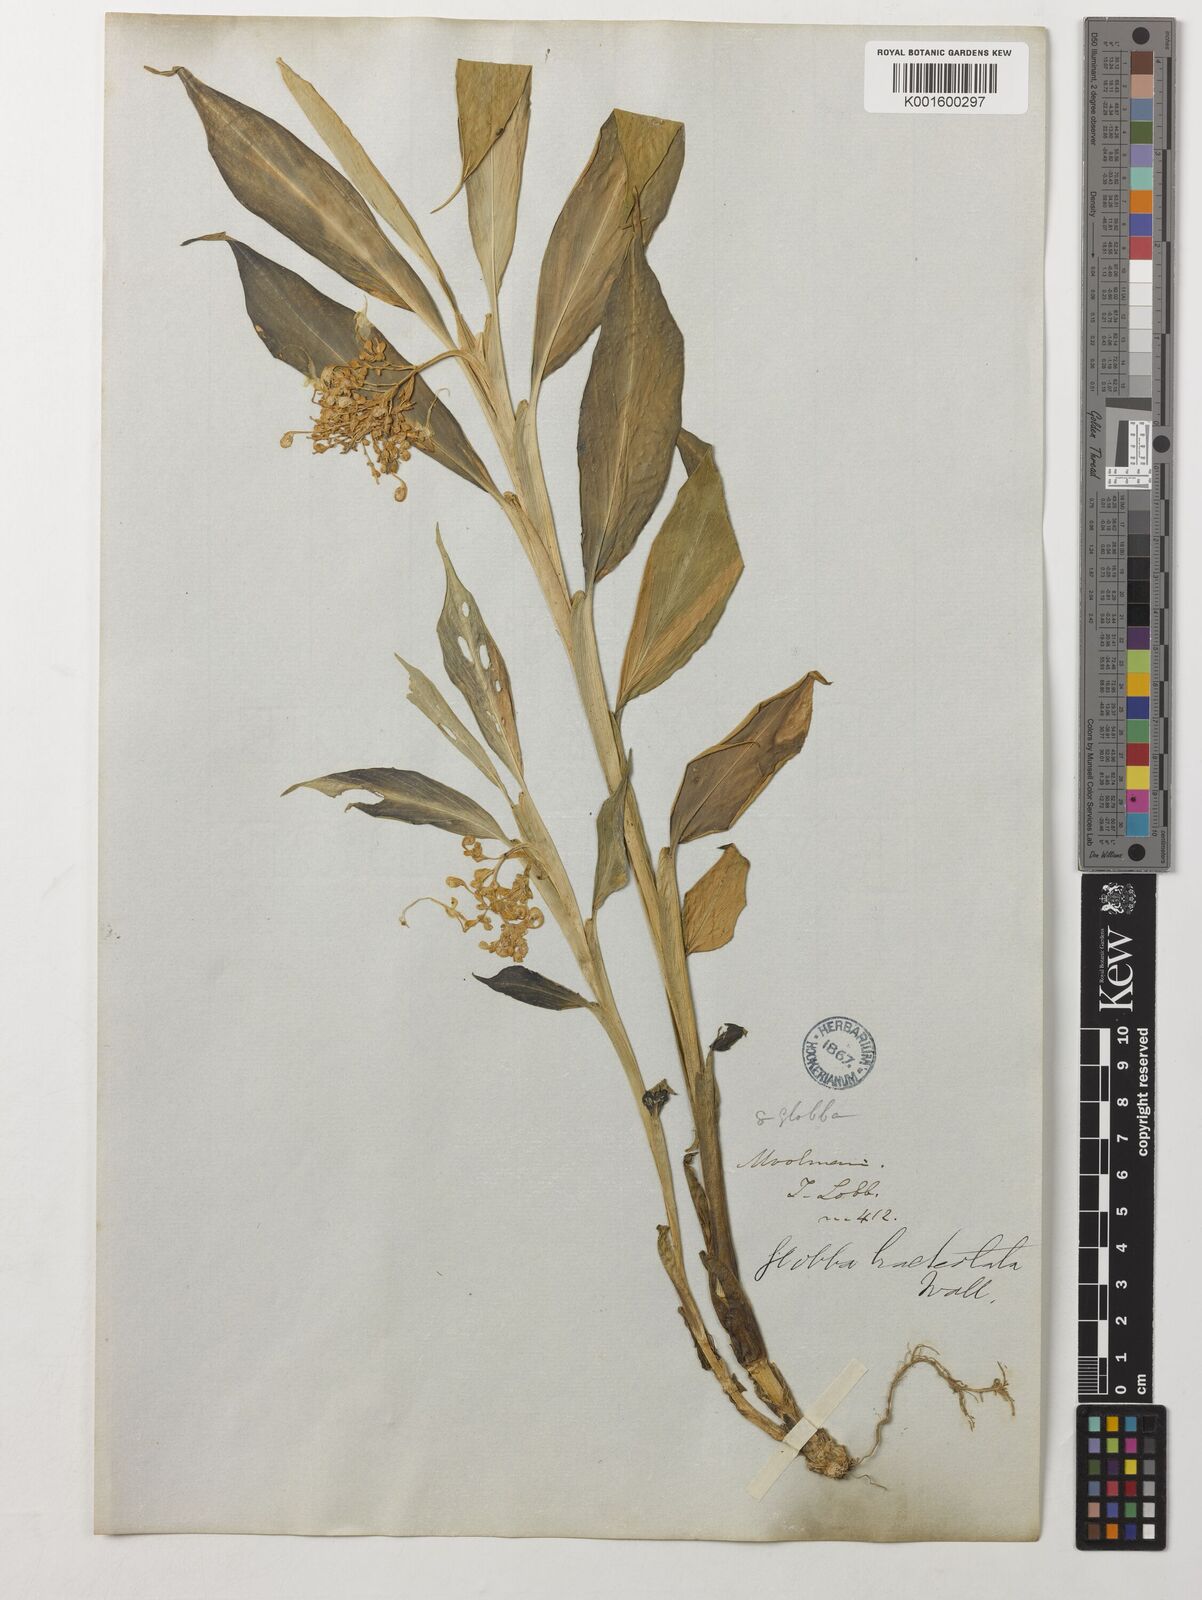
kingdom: Plantae
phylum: Tracheophyta
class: Liliopsida
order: Zingiberales
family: Zingiberaceae
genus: Globba
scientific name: Globba
